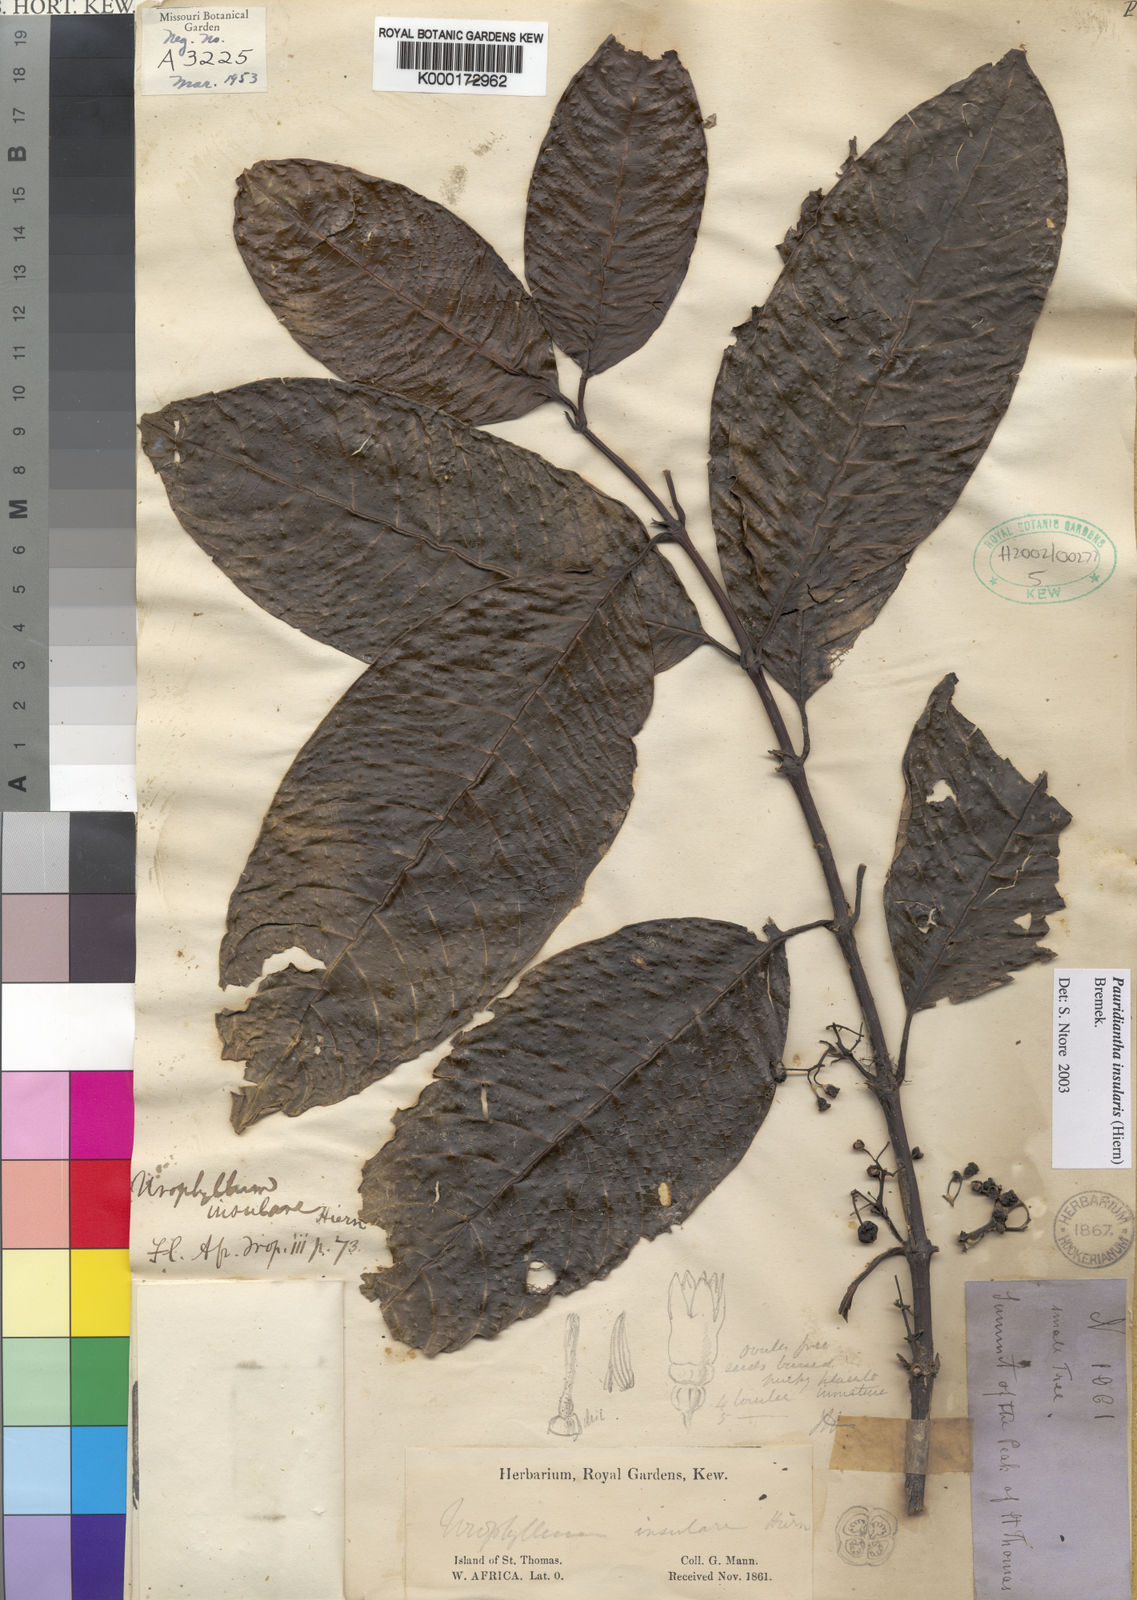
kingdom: Plantae
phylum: Tracheophyta
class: Magnoliopsida
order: Gentianales
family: Rubiaceae
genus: Pauridiantha
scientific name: Pauridiantha insularis
